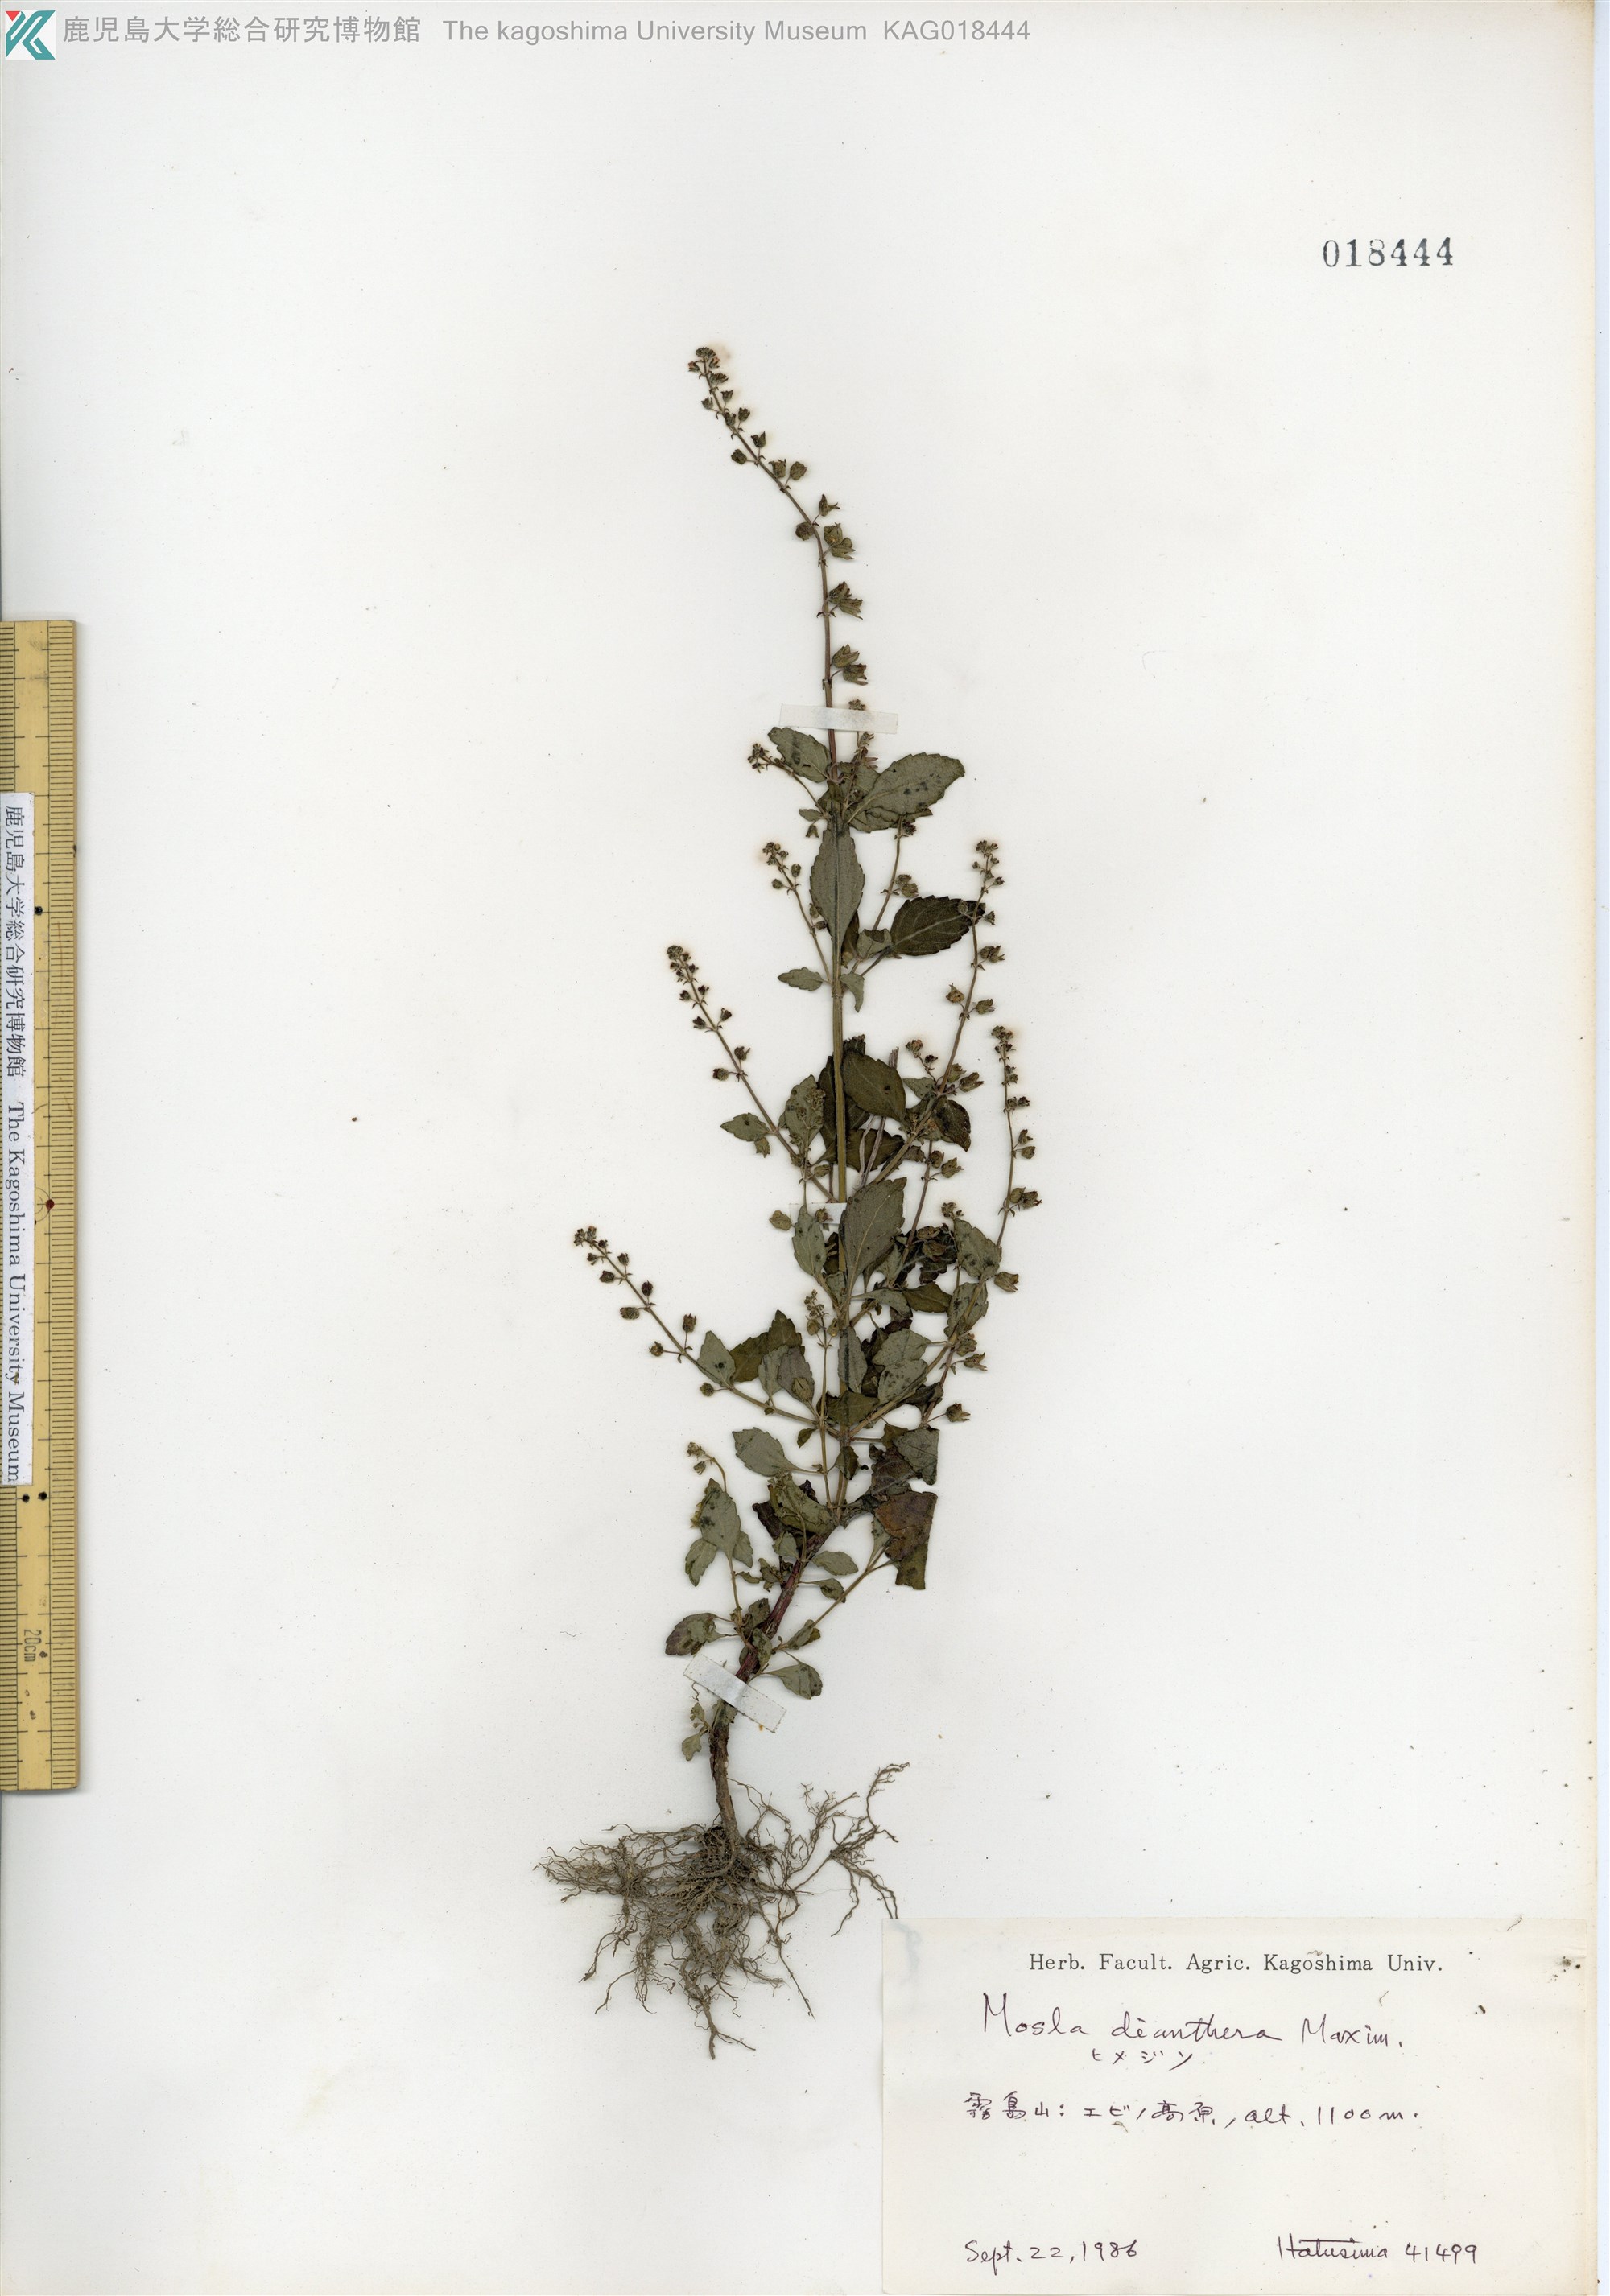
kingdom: Plantae
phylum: Tracheophyta
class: Magnoliopsida
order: Lamiales
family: Lamiaceae
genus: Mosla
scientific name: Mosla dianthera
